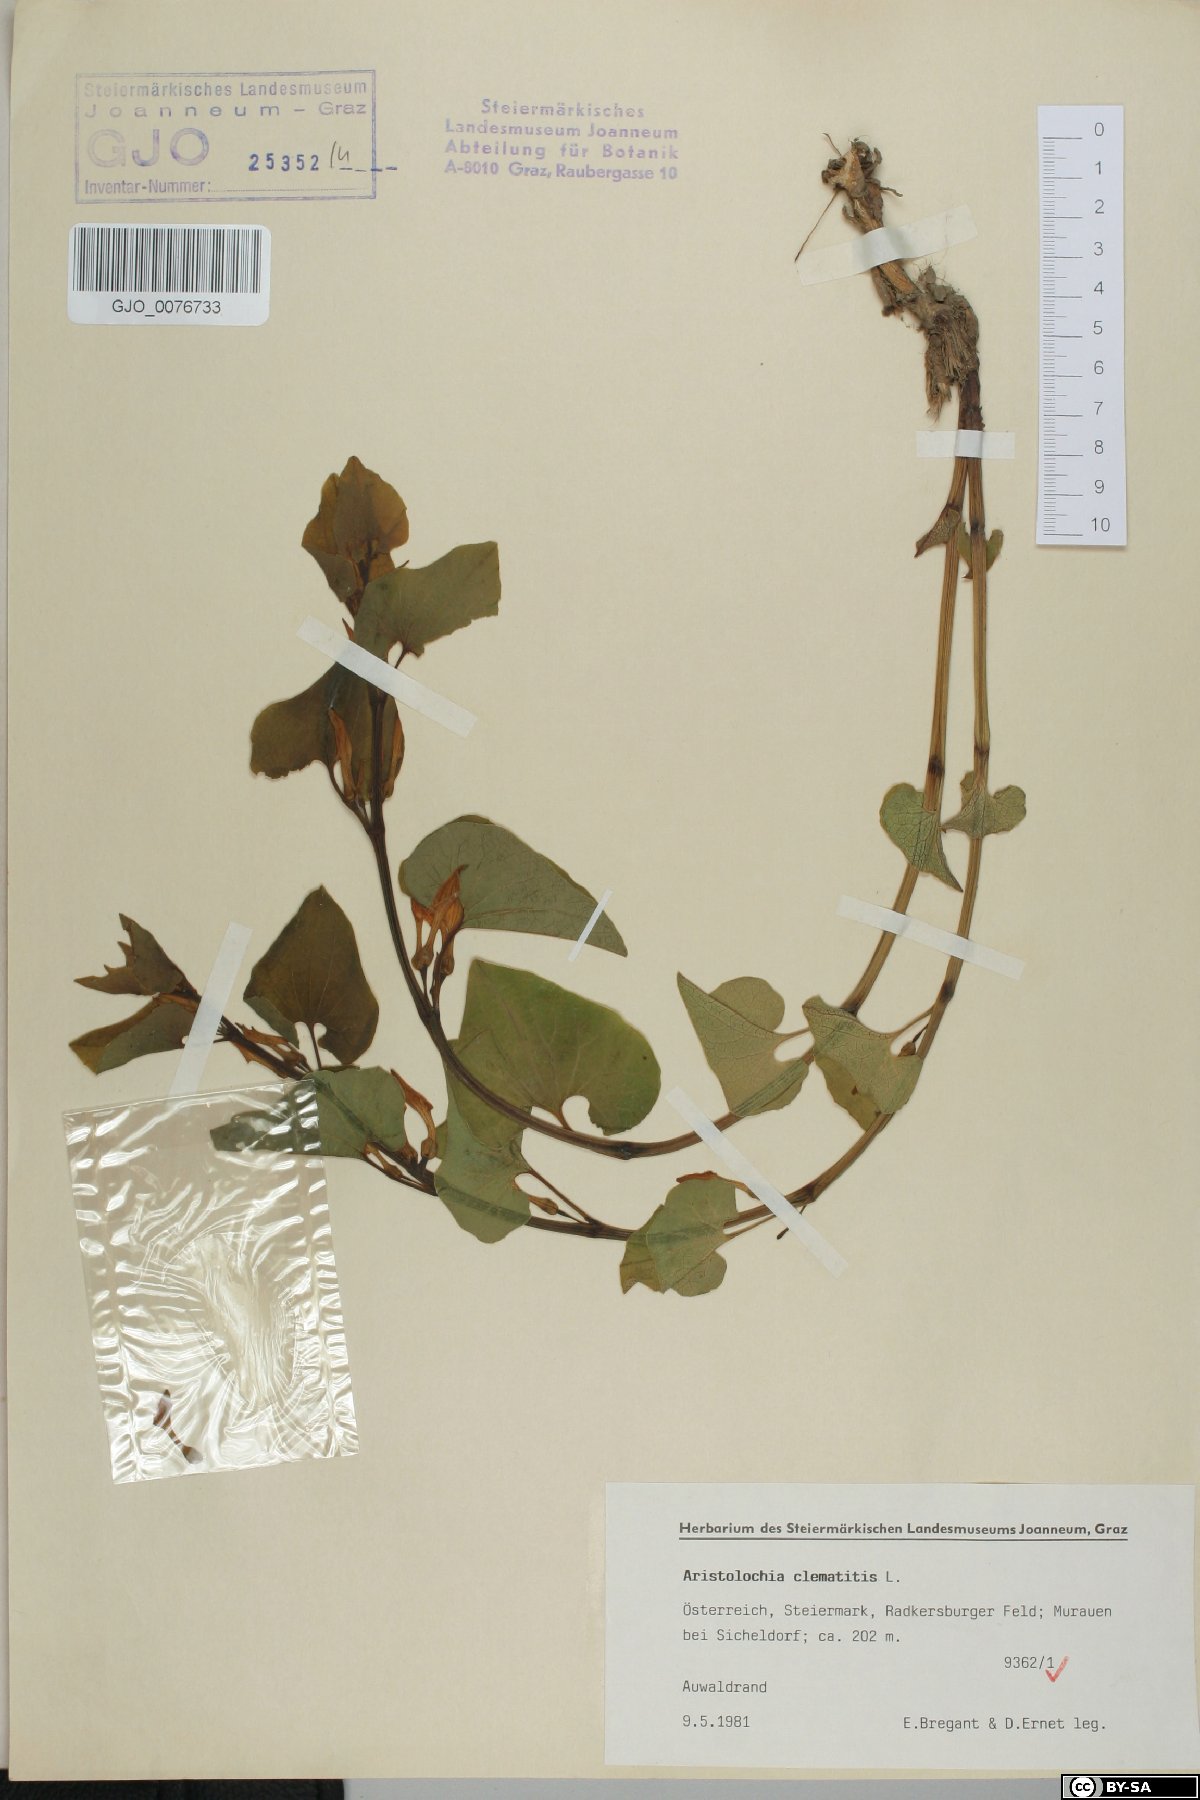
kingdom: Plantae
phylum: Tracheophyta
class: Magnoliopsida
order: Piperales
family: Aristolochiaceae
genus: Aristolochia
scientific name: Aristolochia clematitis
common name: Birthwort
